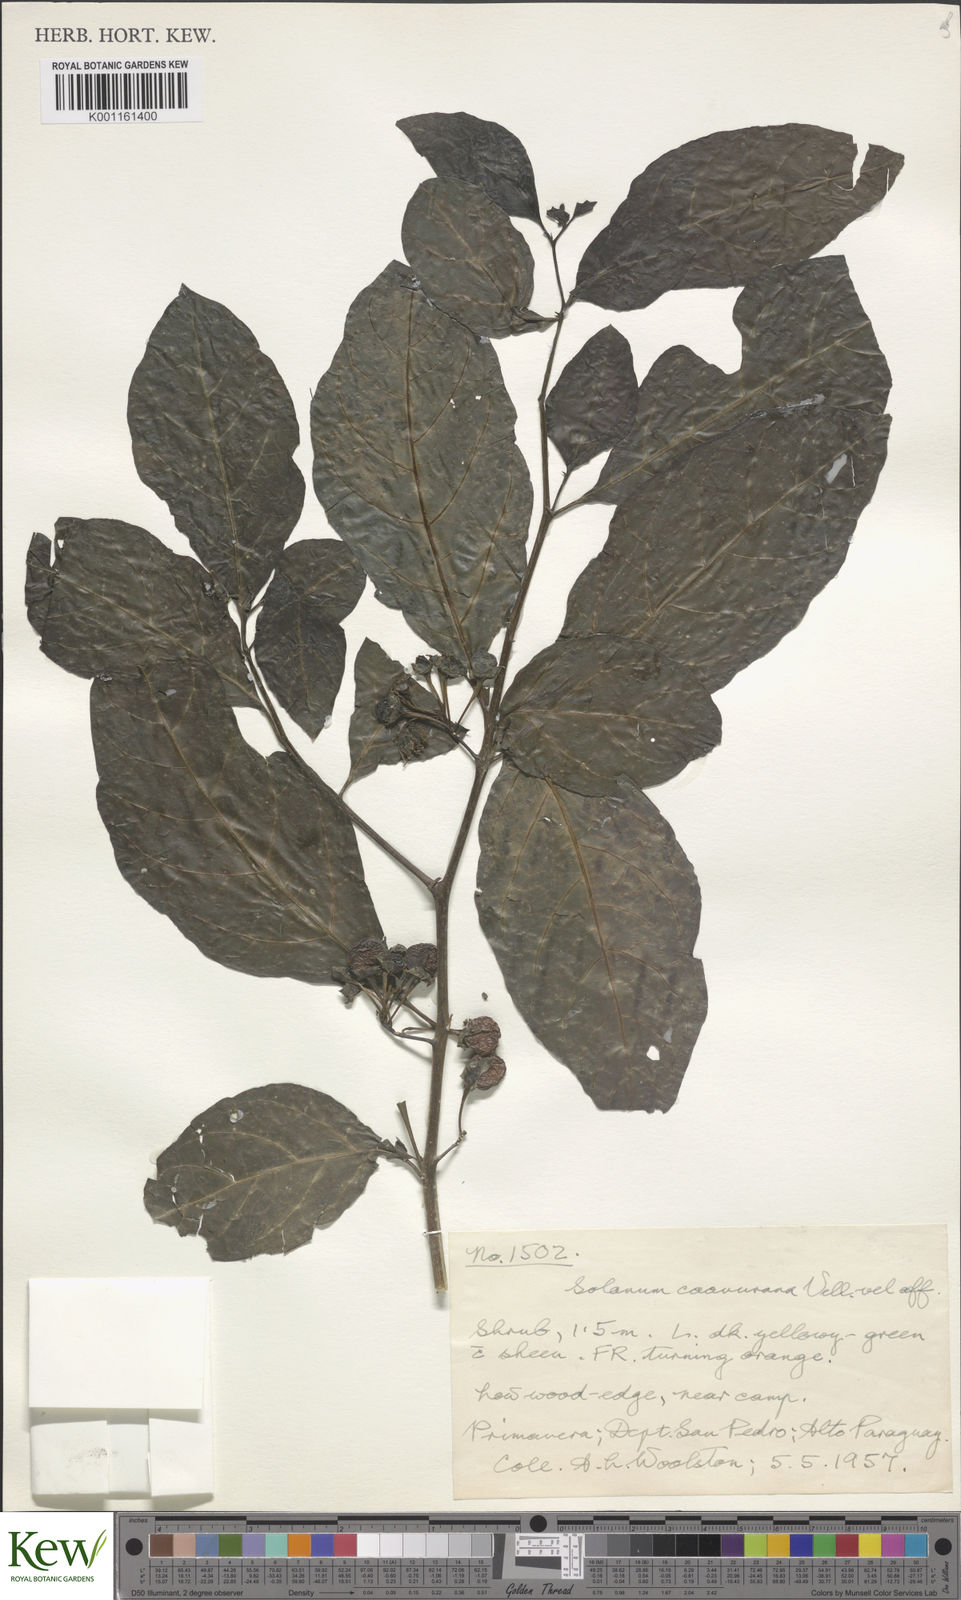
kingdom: Plantae
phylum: Tracheophyta
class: Magnoliopsida
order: Solanales
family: Solanaceae
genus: Solanum
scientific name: Solanum caavurana
